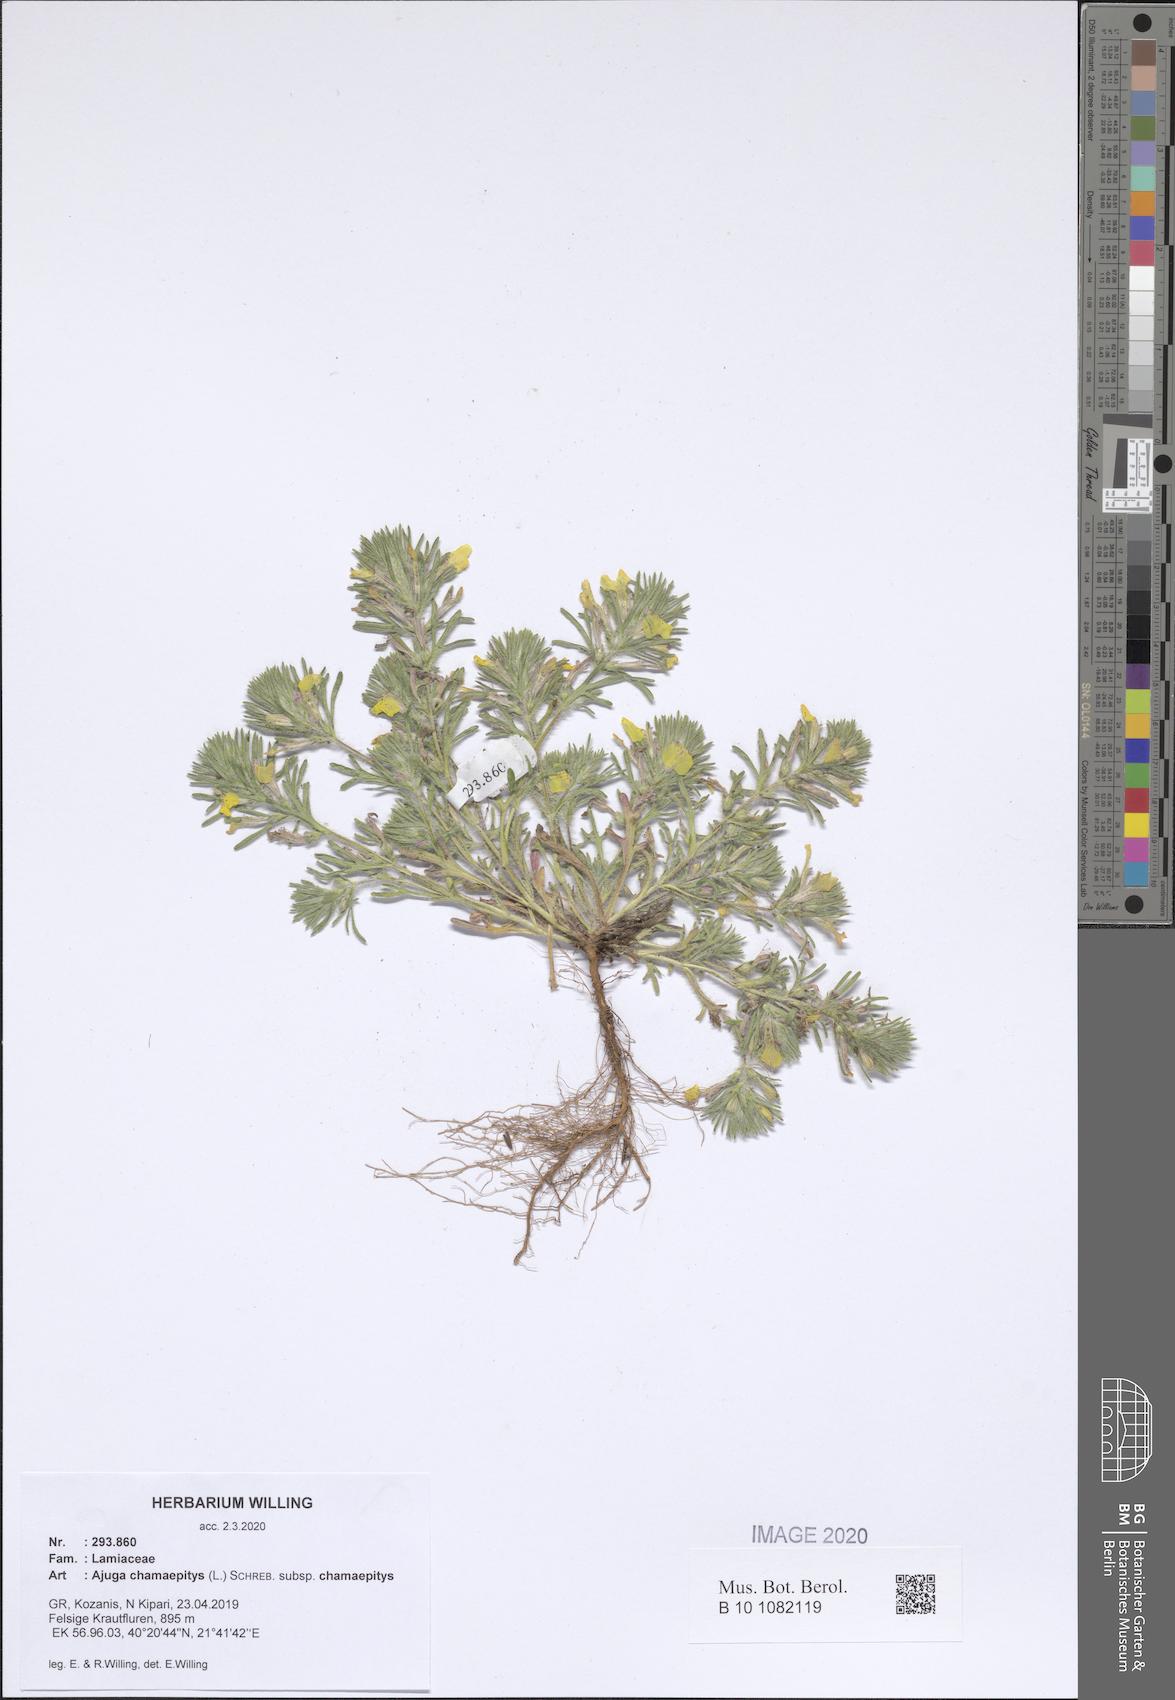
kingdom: Plantae
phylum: Tracheophyta
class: Magnoliopsida
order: Lamiales
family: Lamiaceae
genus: Ajuga
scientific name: Ajuga chamaepitys
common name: Ground-pine
